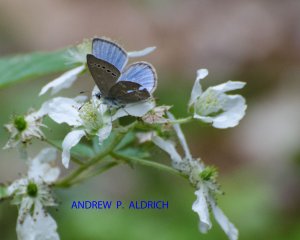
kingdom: Animalia
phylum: Arthropoda
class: Insecta
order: Lepidoptera
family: Lycaenidae
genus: Glaucopsyche
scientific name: Glaucopsyche lygdamus
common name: Silvery Blue
